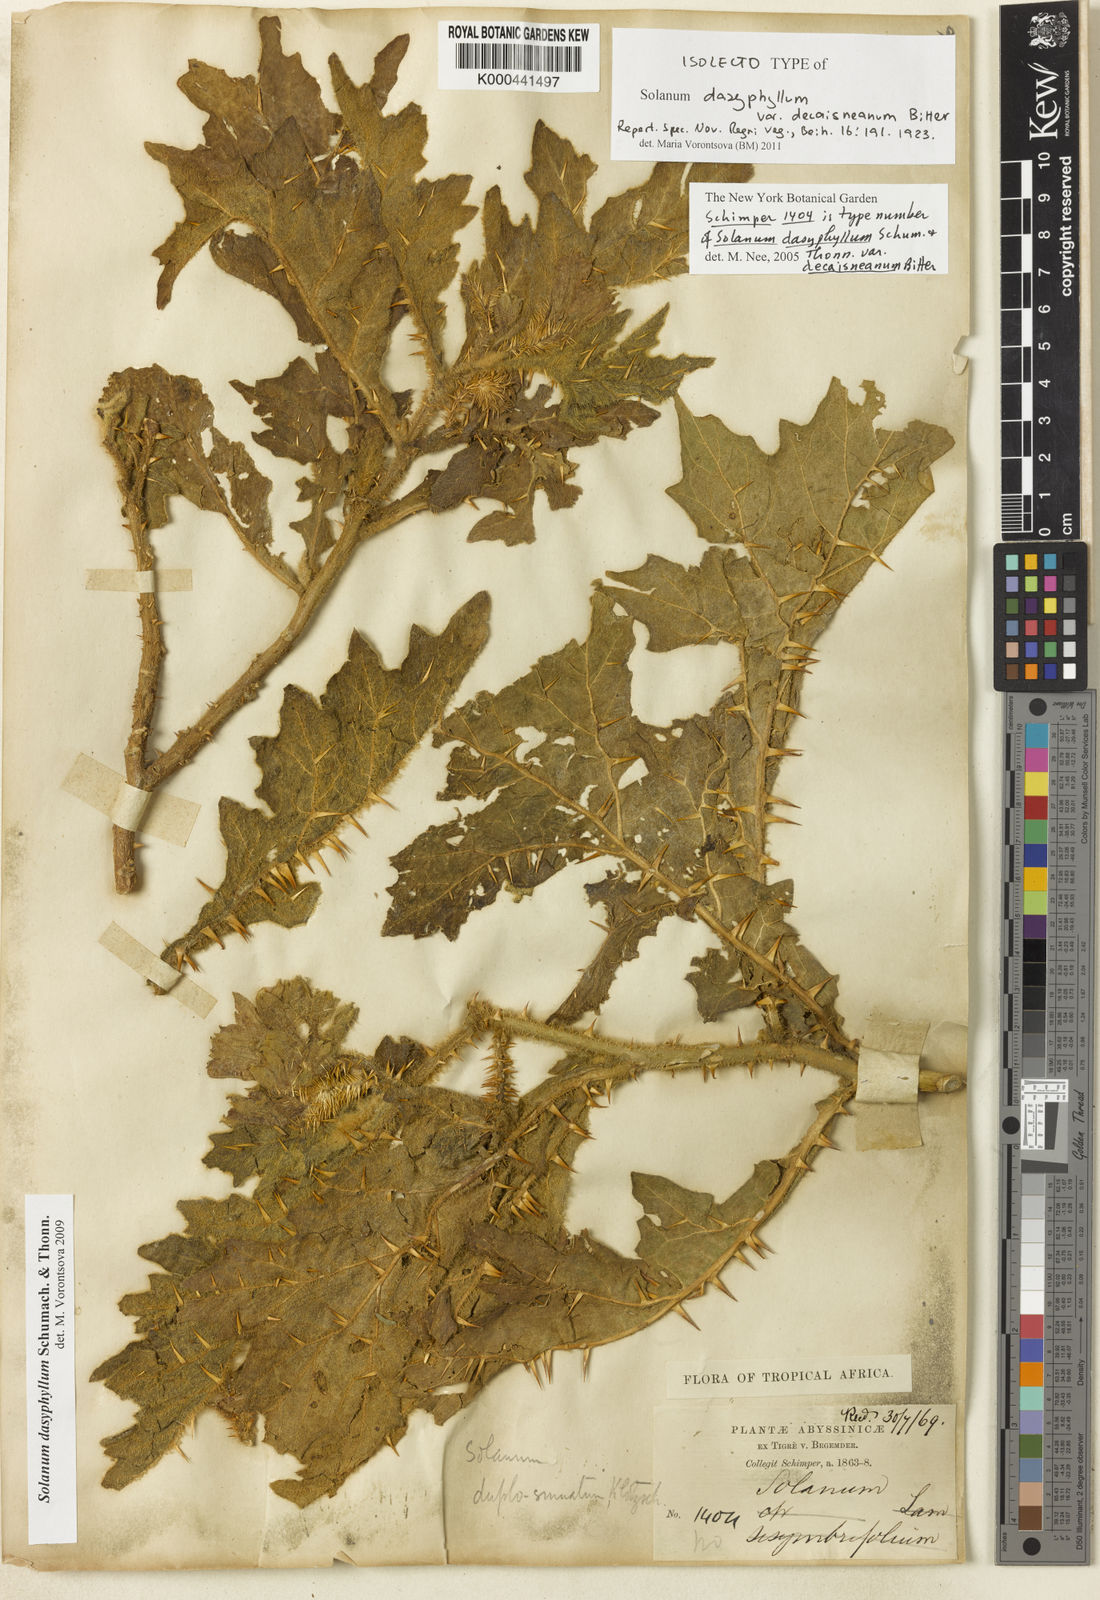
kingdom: Plantae
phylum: Tracheophyta
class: Magnoliopsida
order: Solanales
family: Solanaceae
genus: Solanum
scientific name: Solanum dasyphyllum
